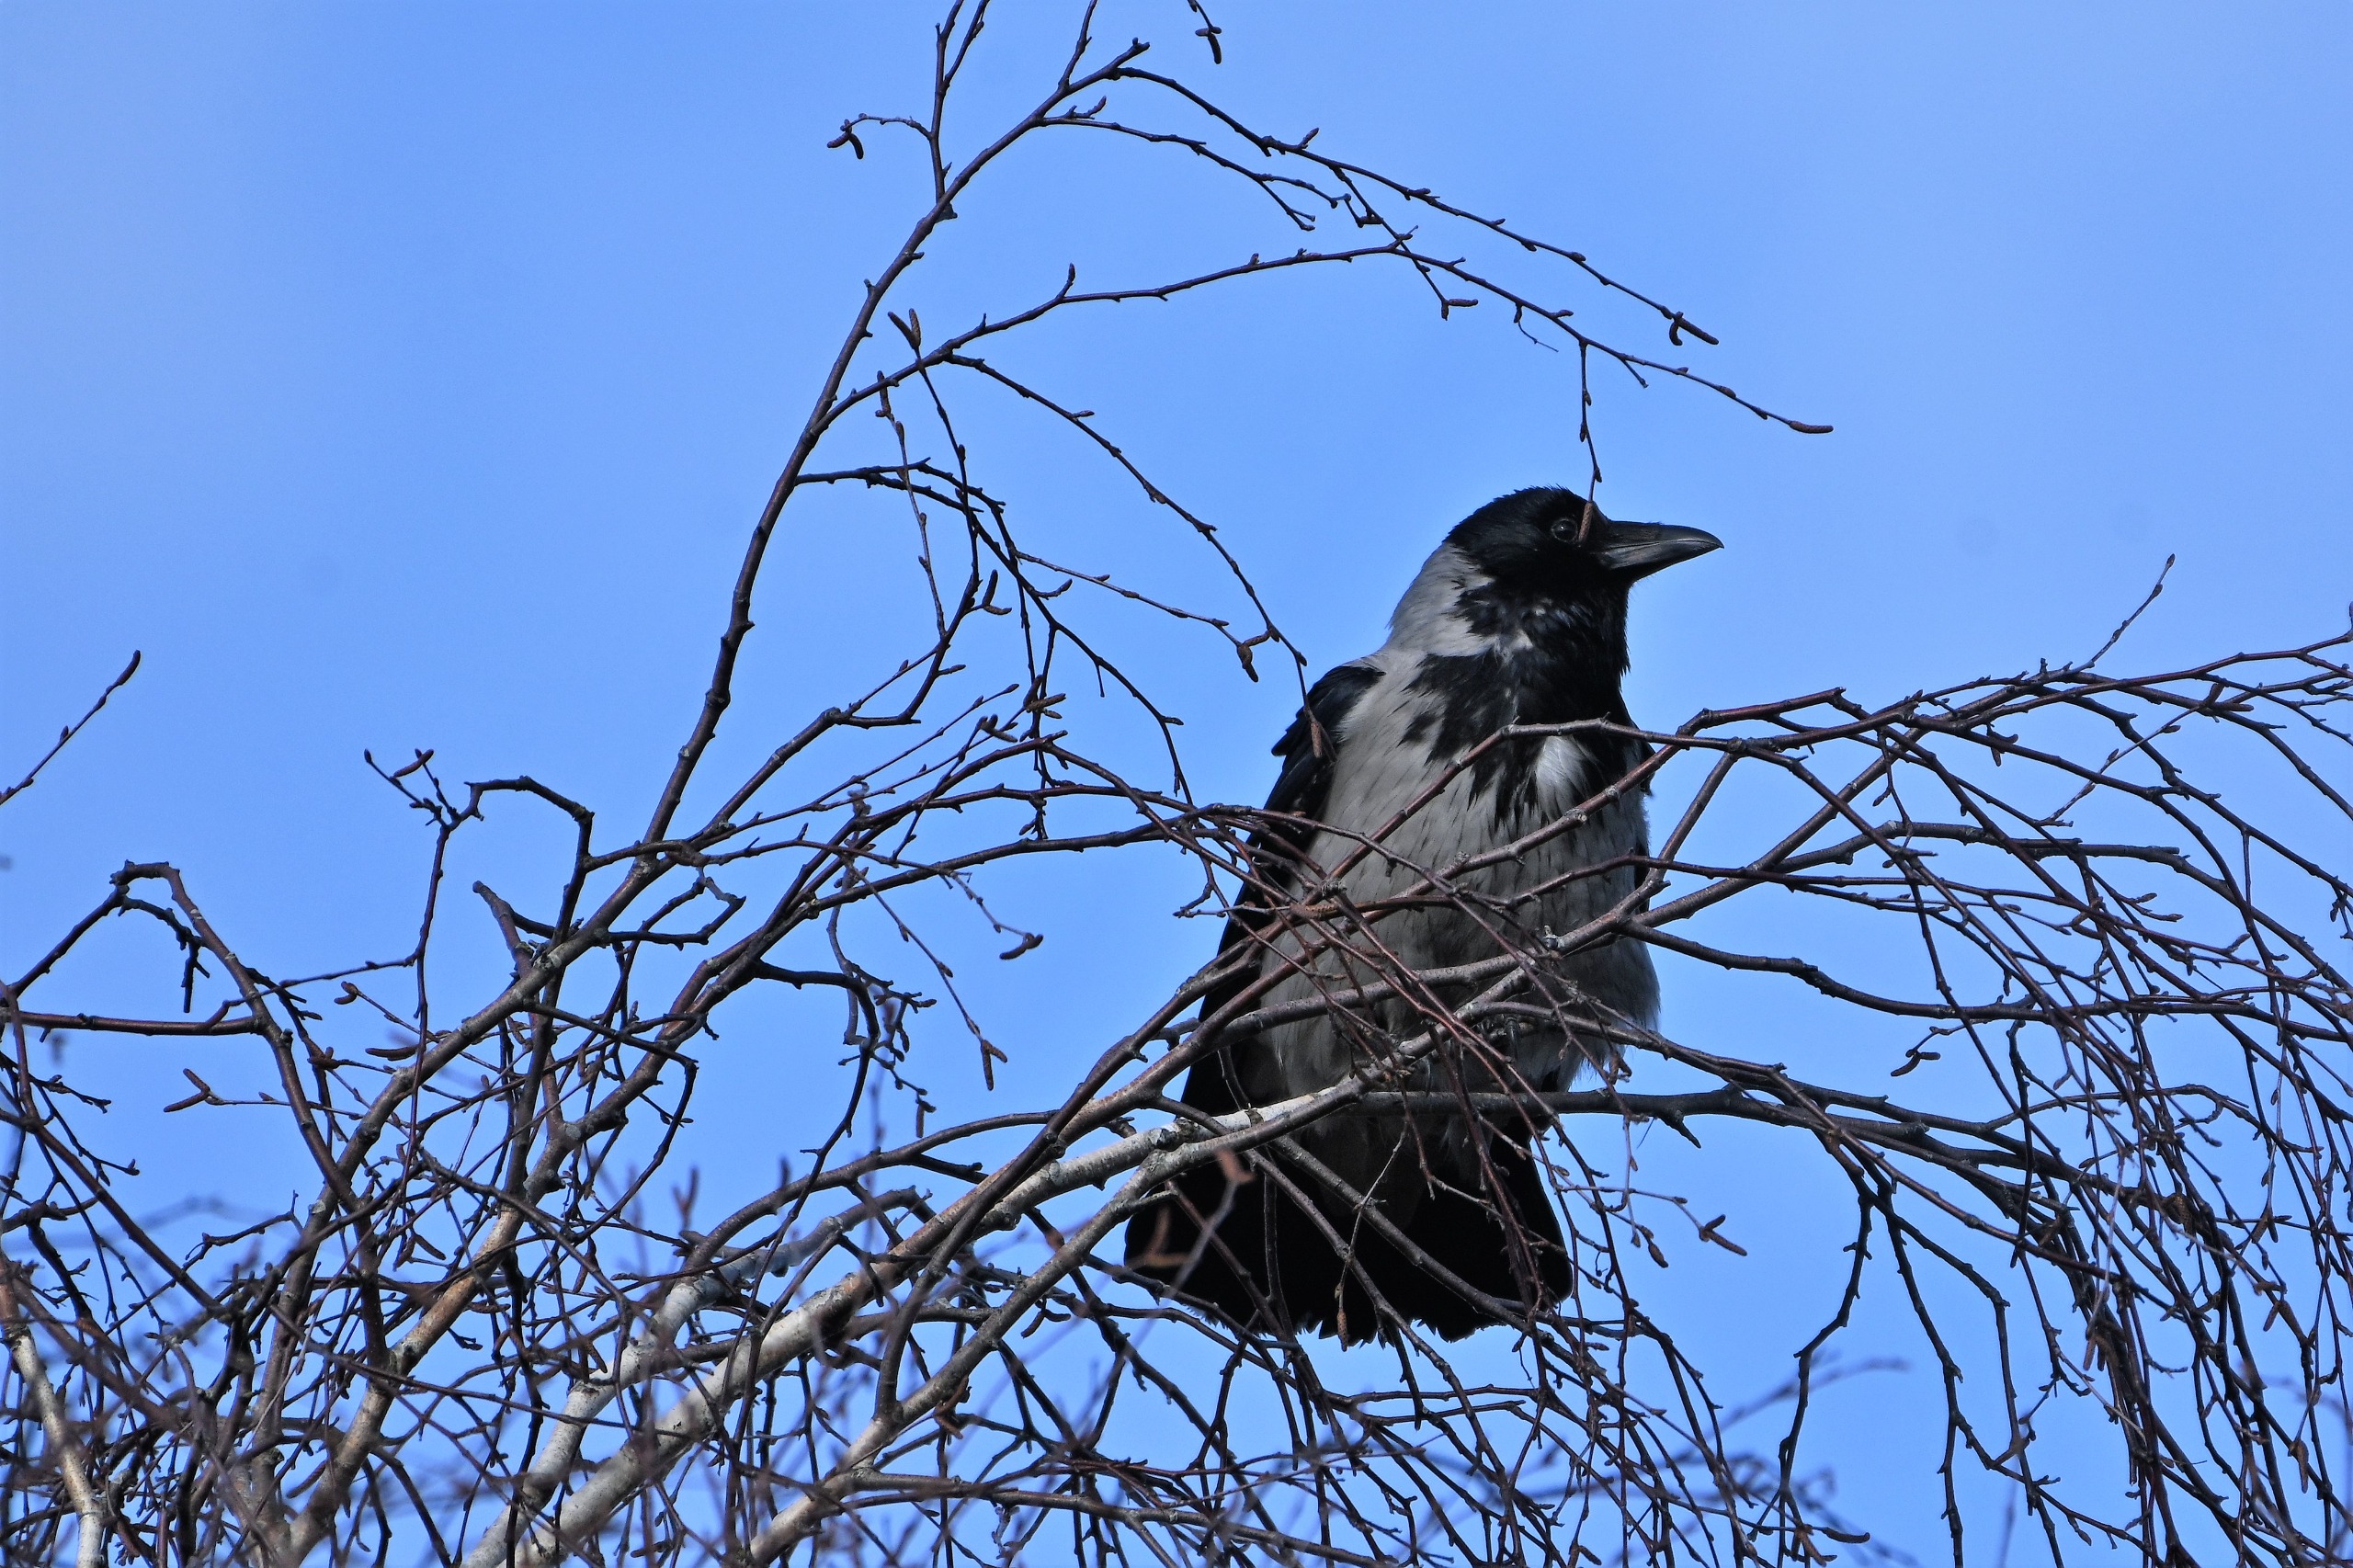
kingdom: Animalia
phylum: Chordata
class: Aves
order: Passeriformes
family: Corvidae
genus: Corvus
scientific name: Corvus cornix
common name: Gråkrage
